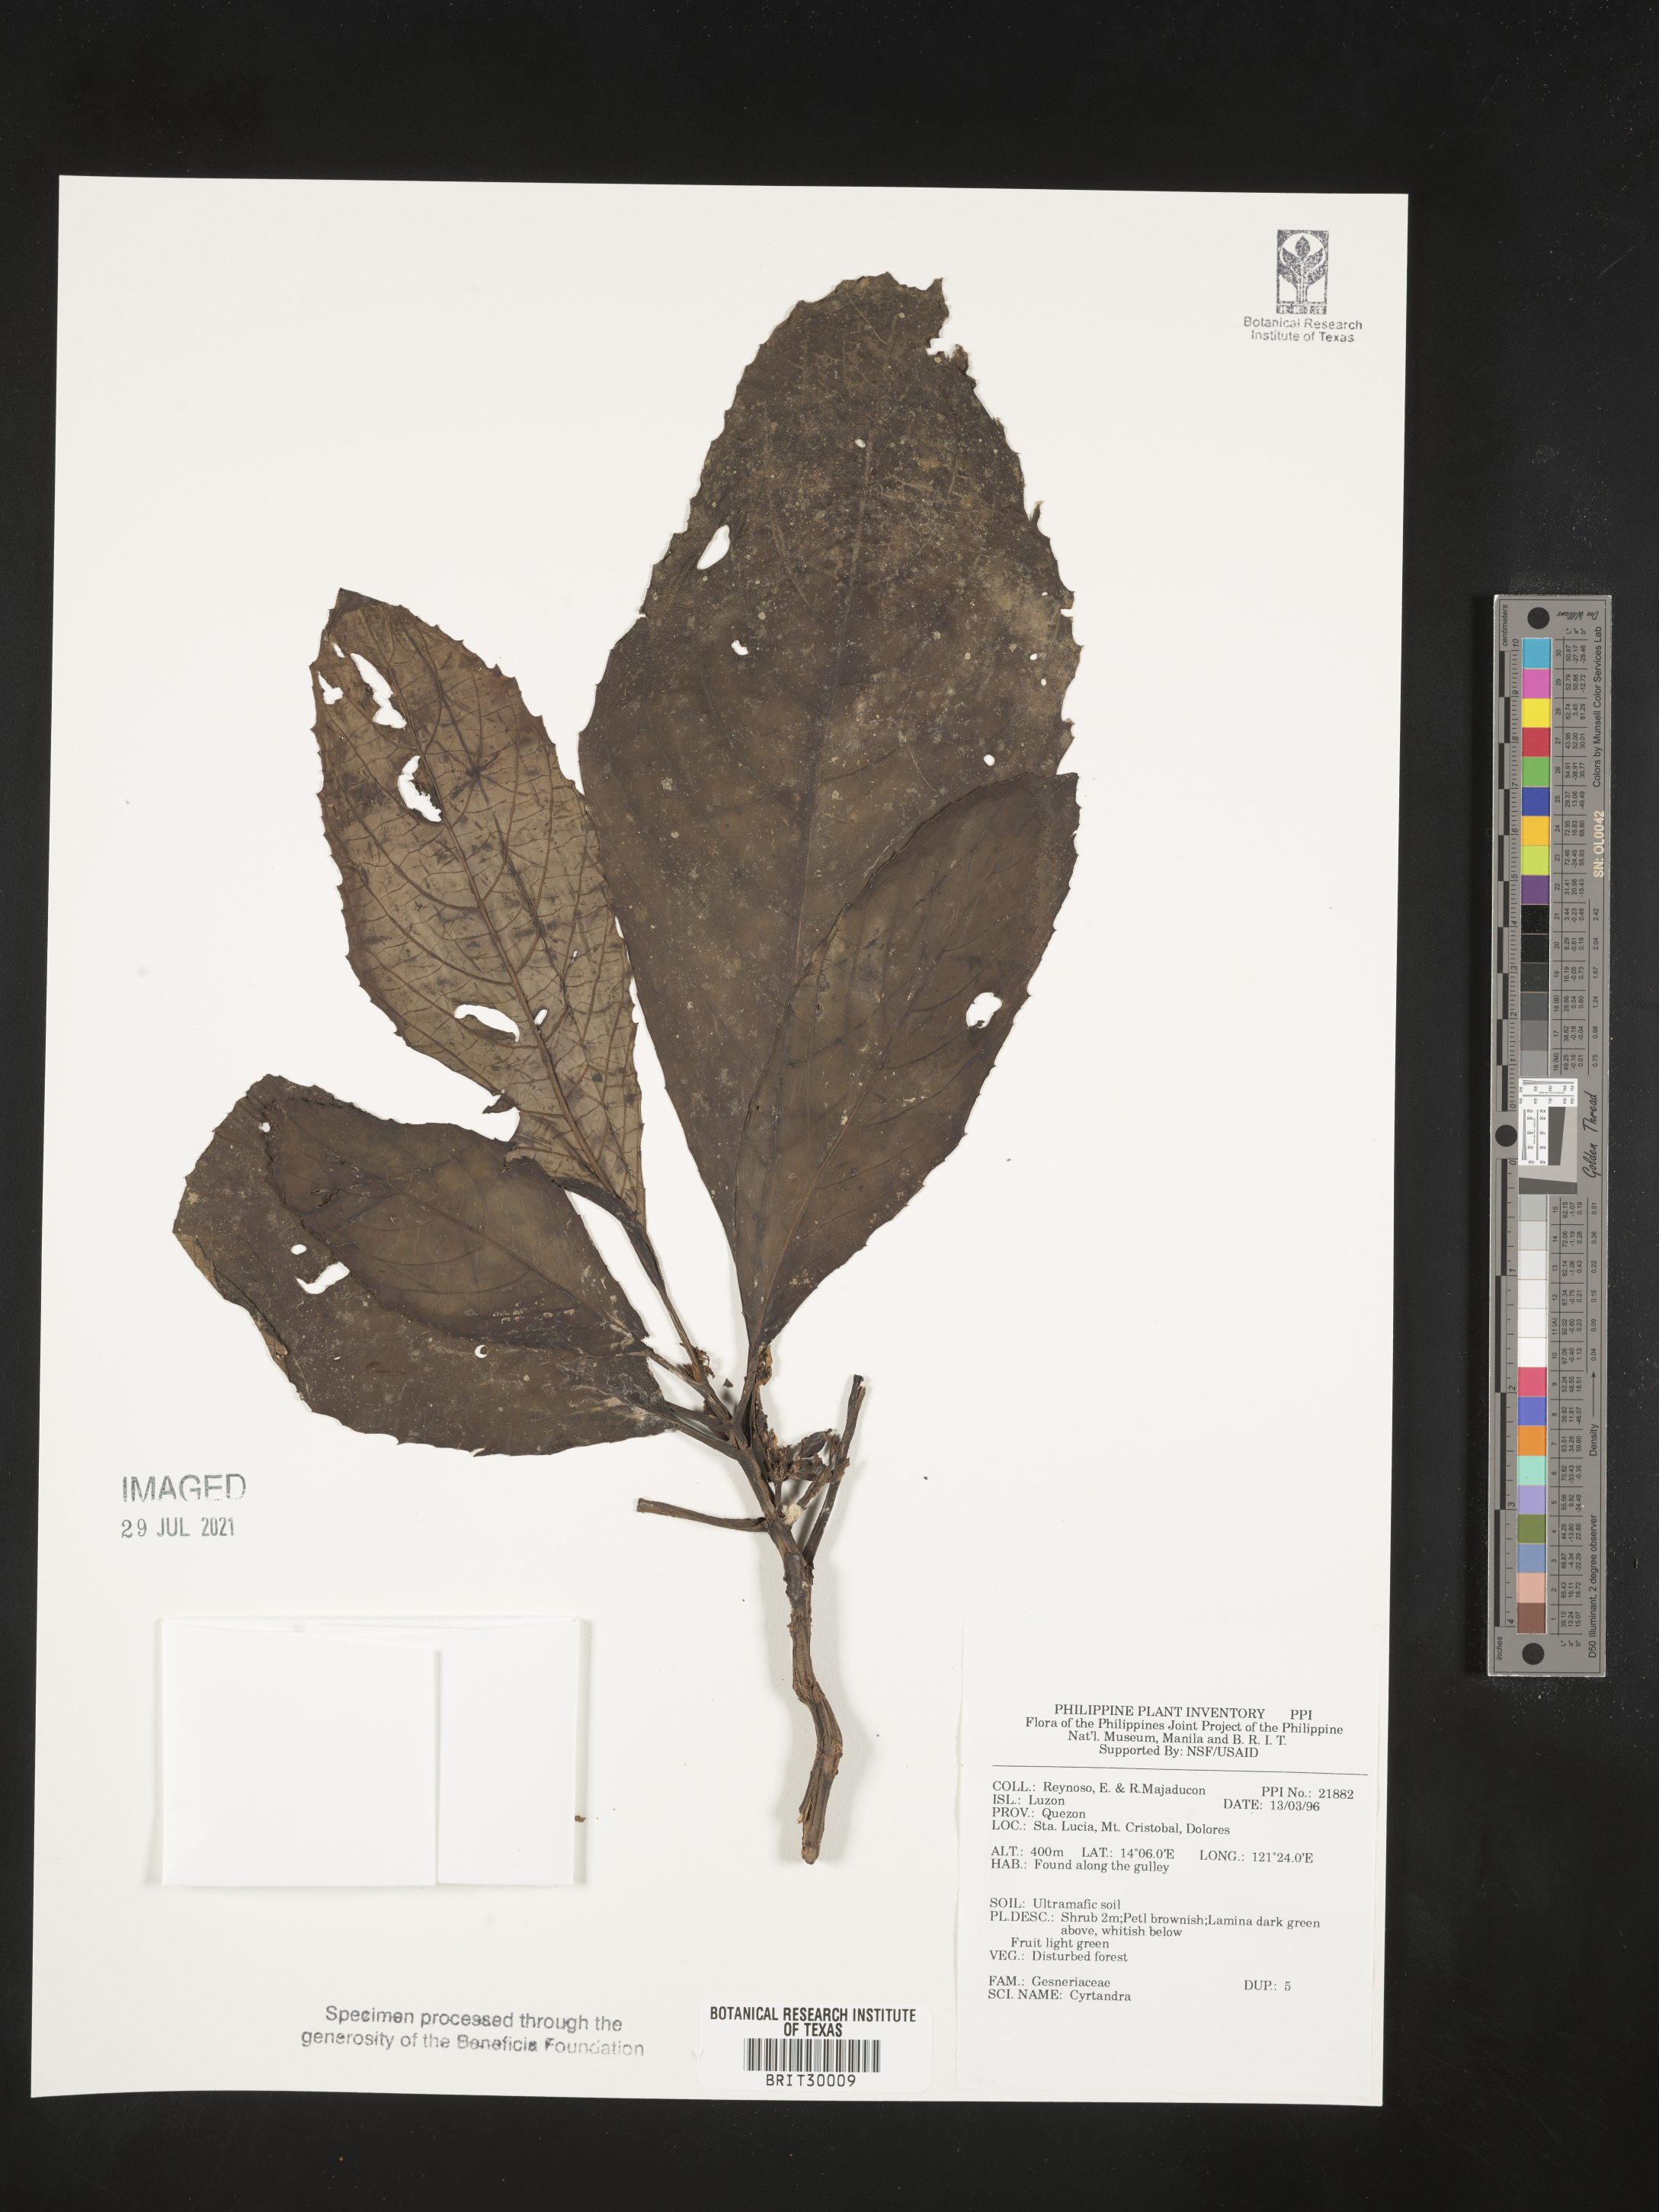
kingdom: Plantae
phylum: Tracheophyta
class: Magnoliopsida
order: Lamiales
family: Gesneriaceae
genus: Cyrtandra
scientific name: Cyrtandra
